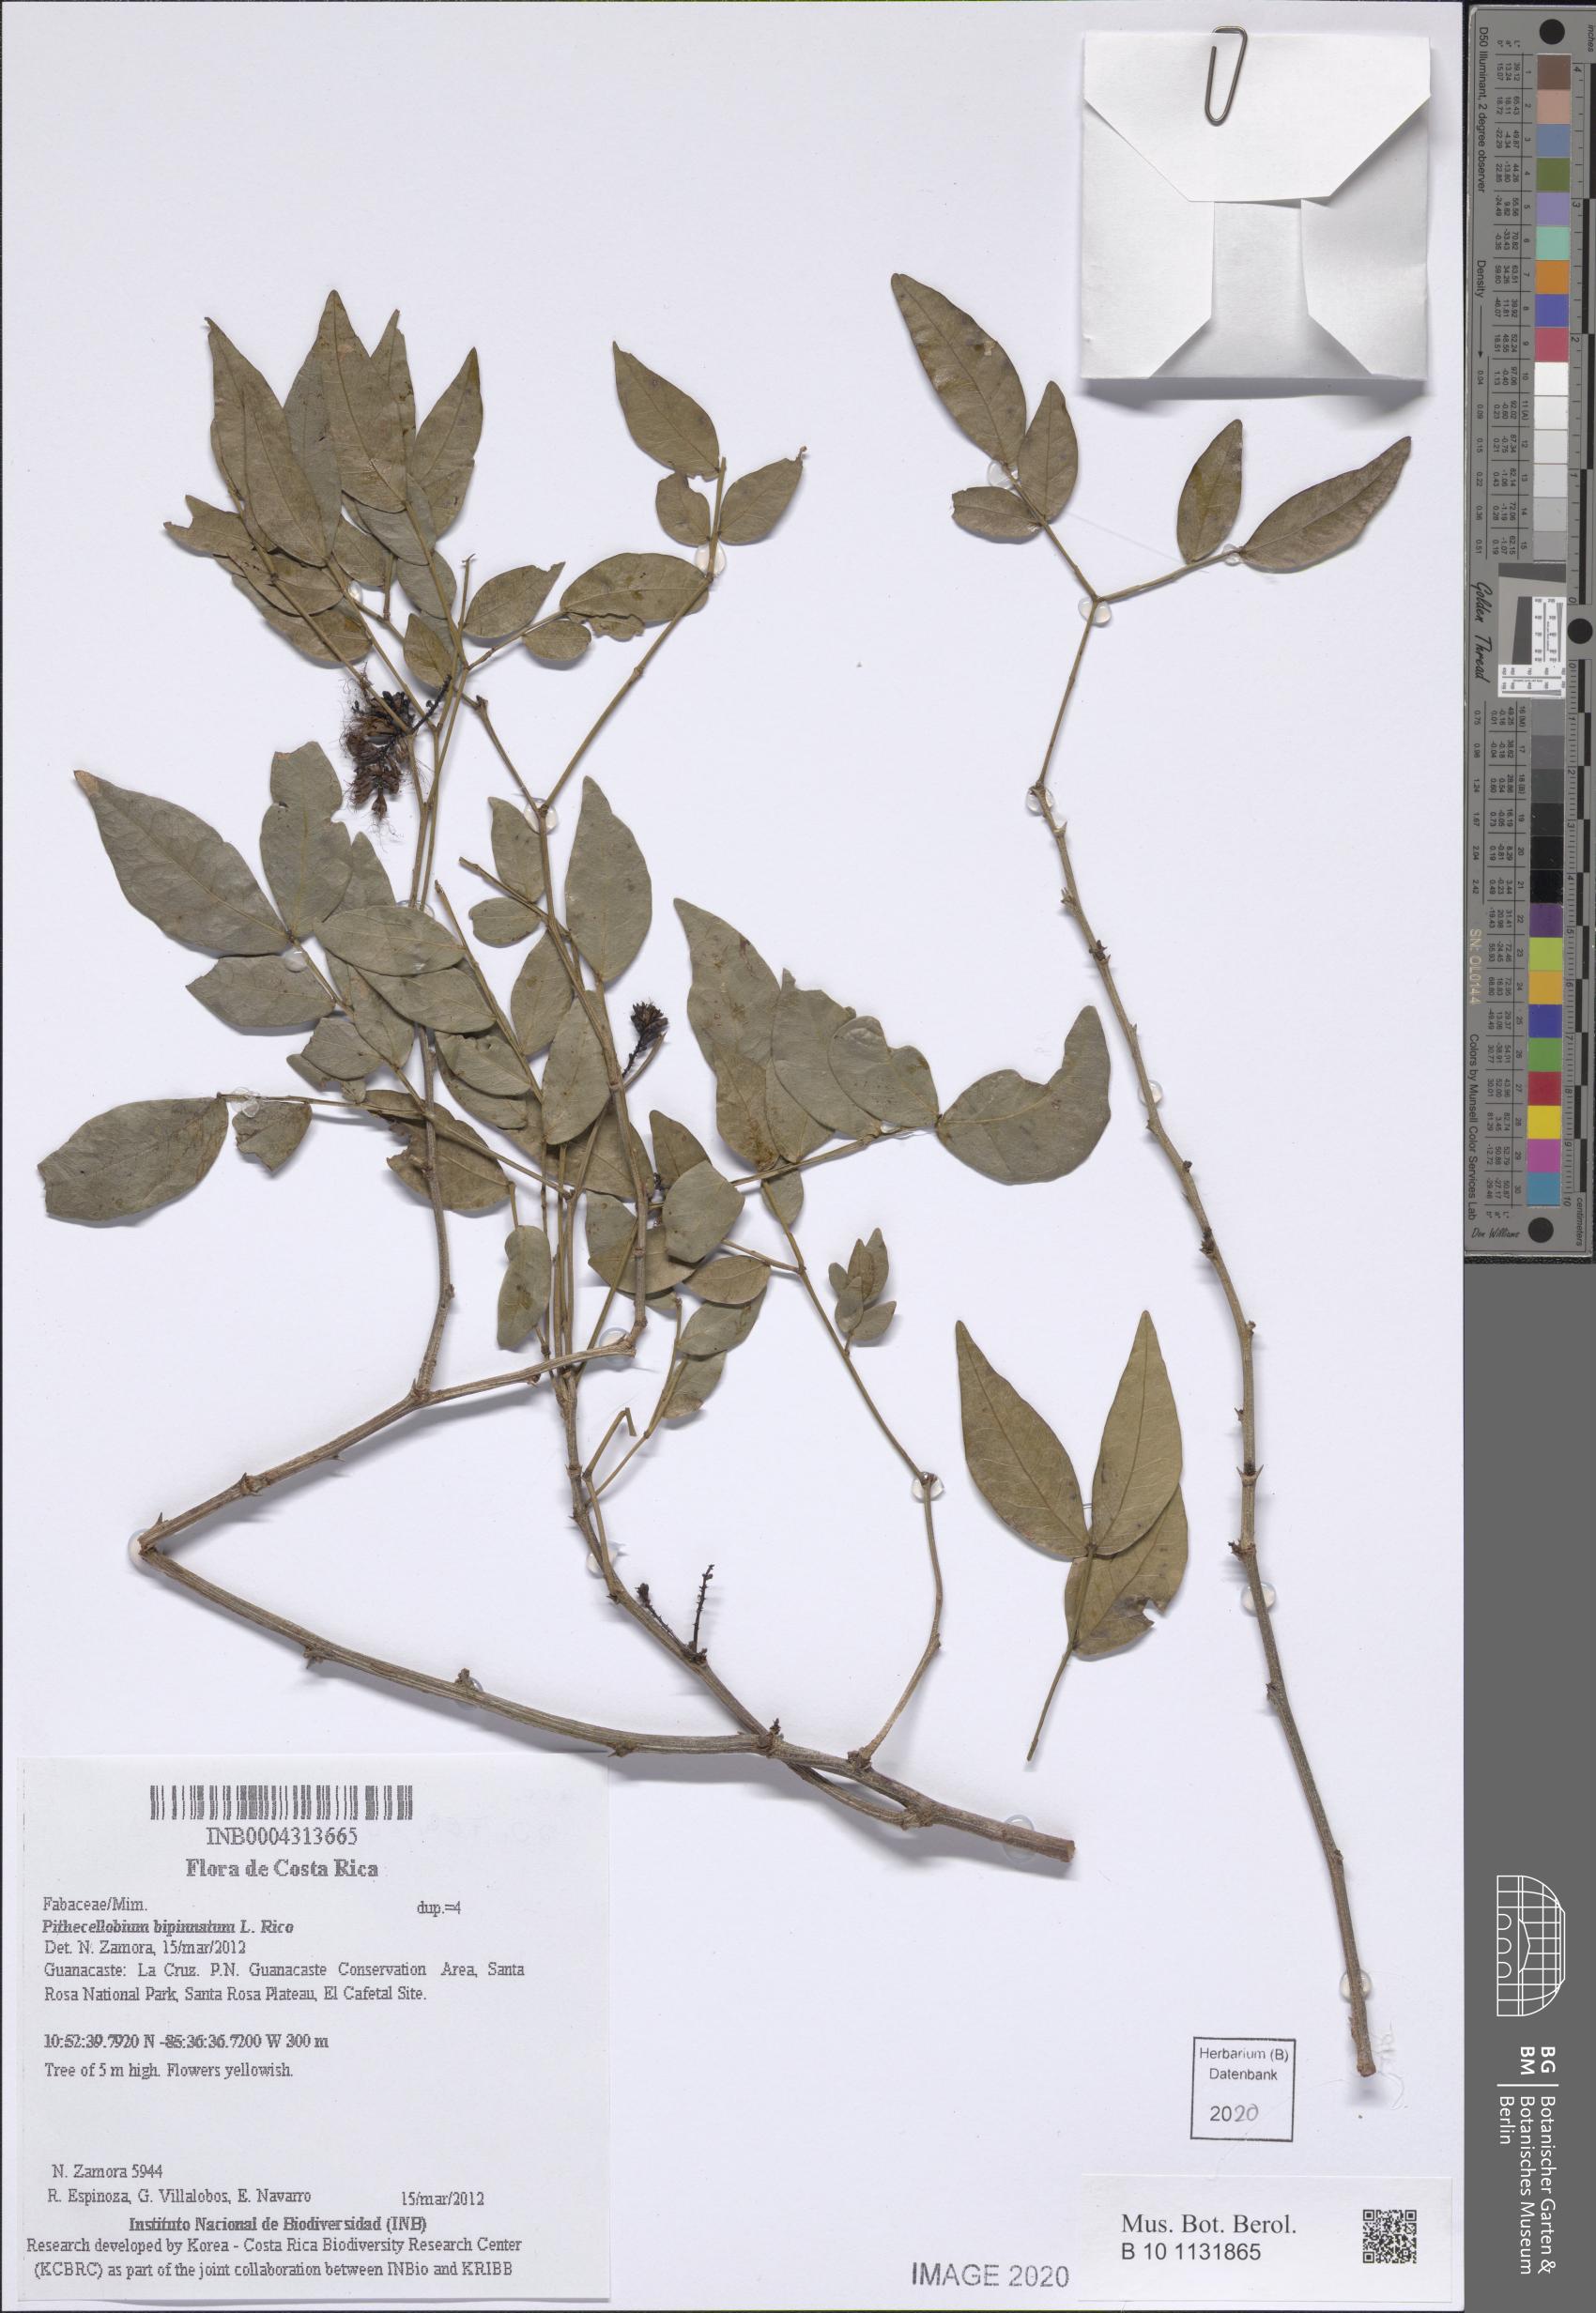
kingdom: Plantae
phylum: Tracheophyta
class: Magnoliopsida
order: Fabales
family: Fabaceae
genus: Pithecellobium
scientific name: Pithecellobium bipinnatum
